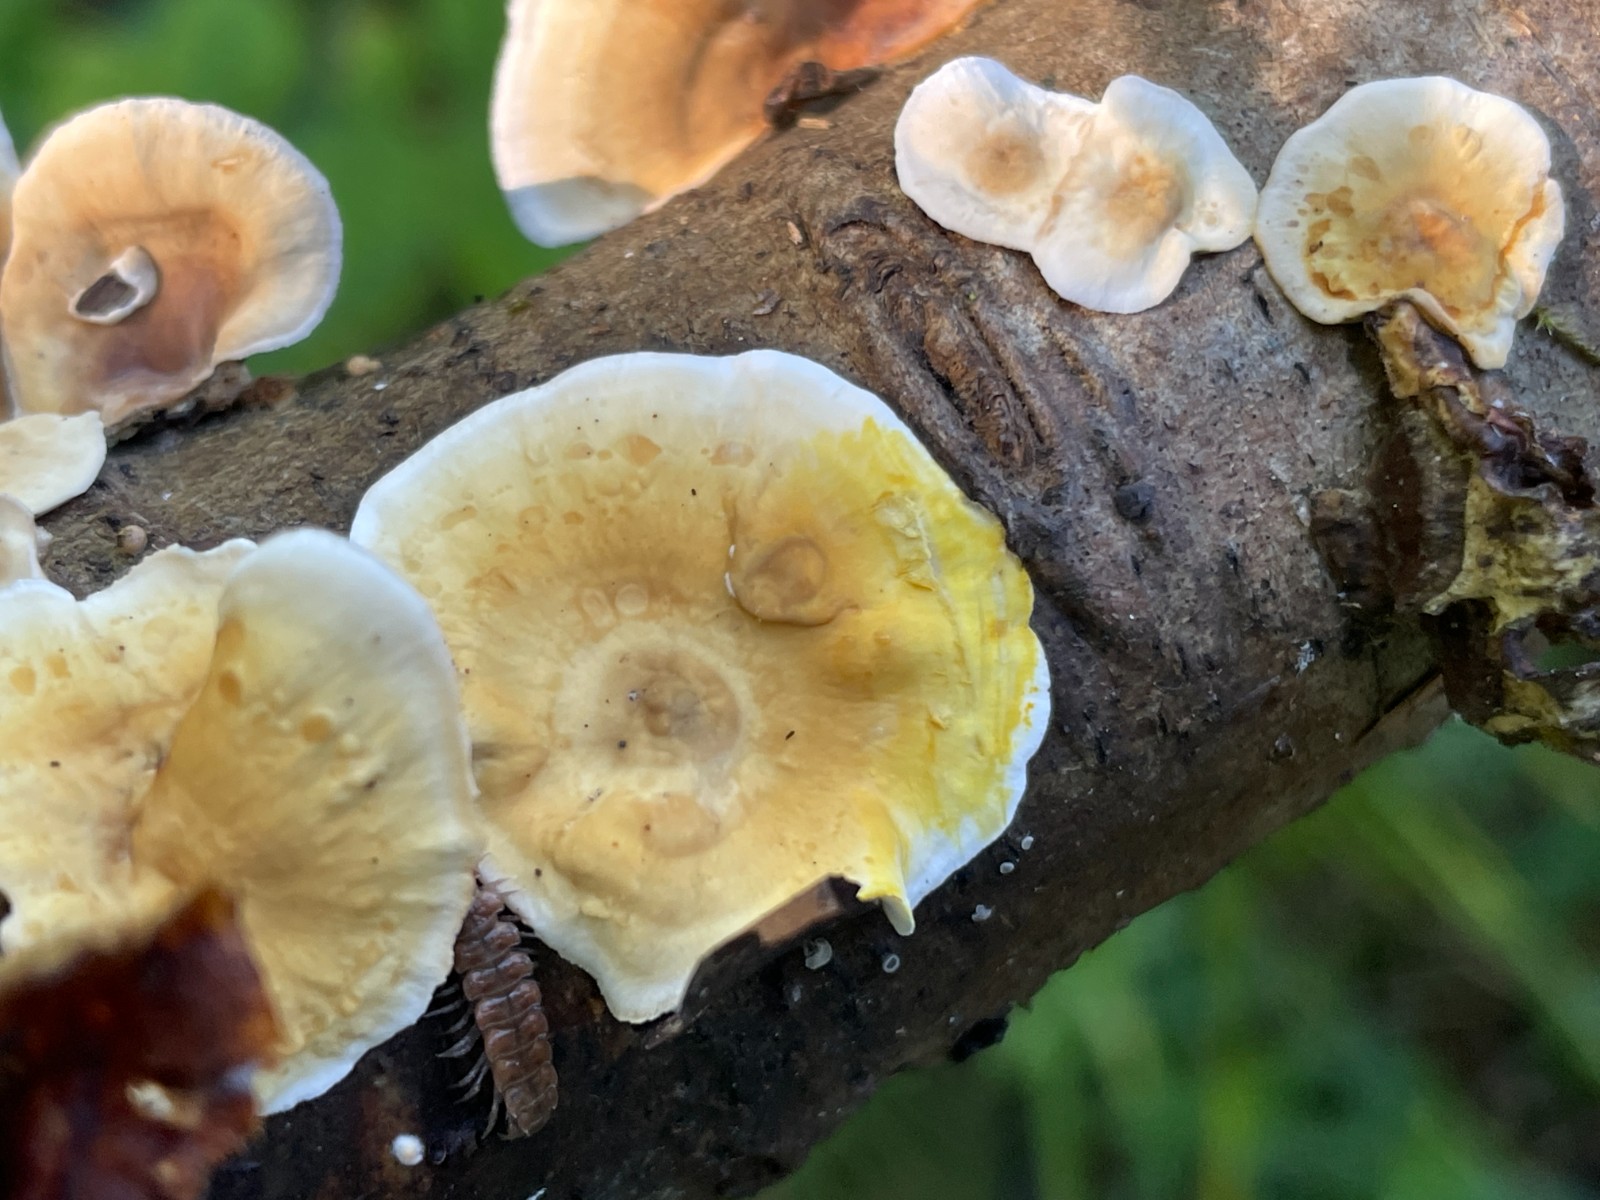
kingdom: Fungi
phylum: Basidiomycota
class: Agaricomycetes
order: Russulales
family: Stereaceae
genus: Stereum
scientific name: Stereum subtomentosum
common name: smuk lædersvamp
